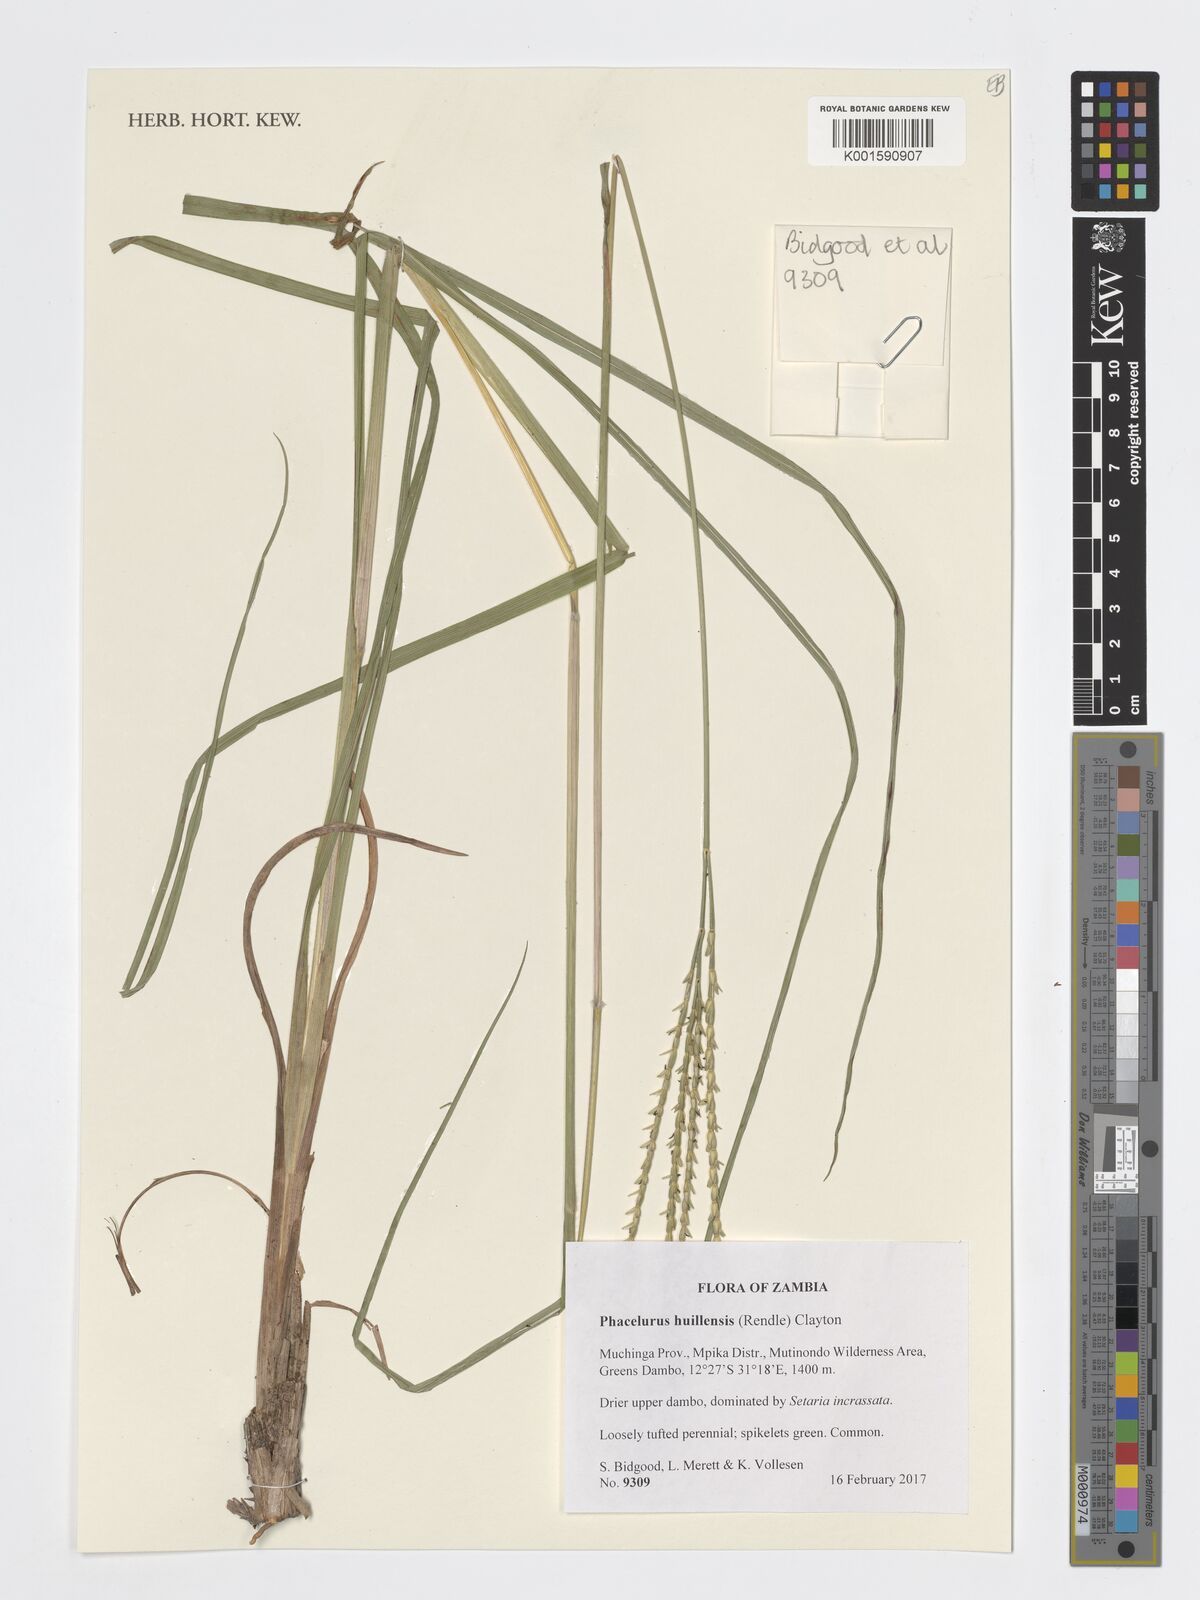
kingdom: Plantae
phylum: Tracheophyta
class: Liliopsida
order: Poales
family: Poaceae
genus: Thyrsia
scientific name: Thyrsia huillensis
